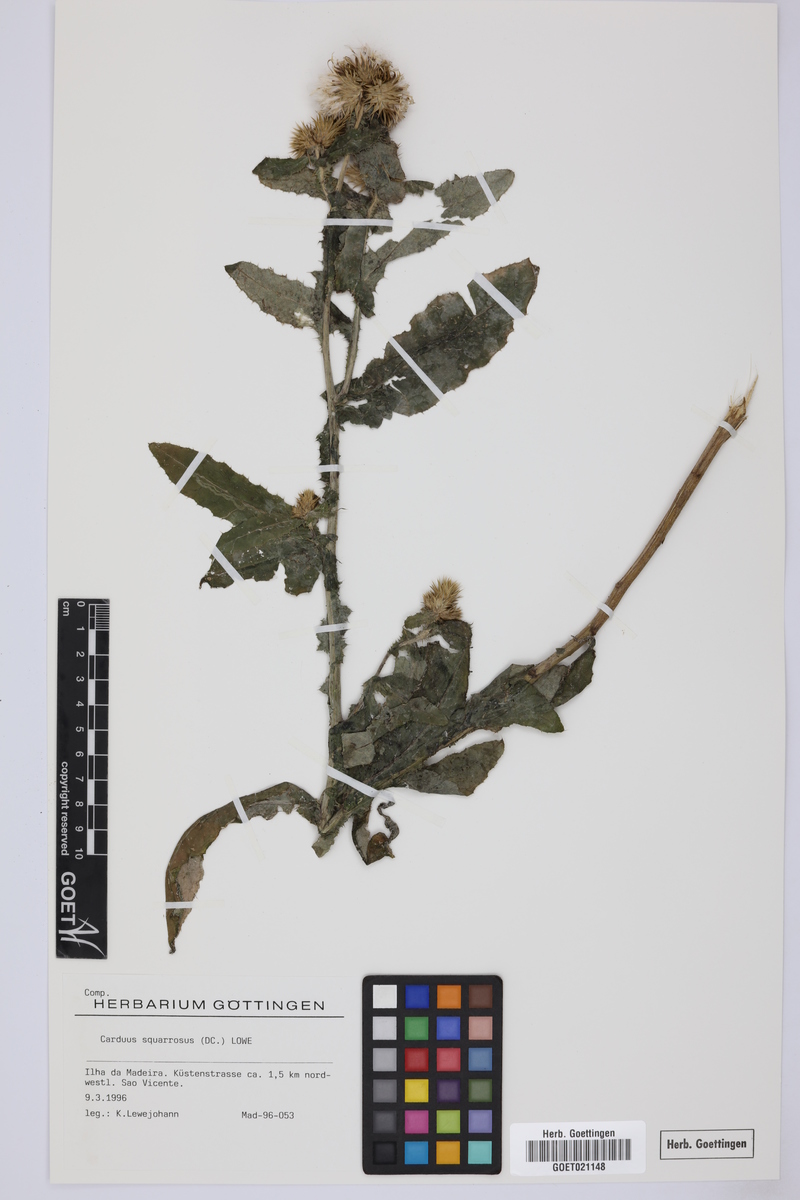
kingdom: Plantae
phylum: Tracheophyta
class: Magnoliopsida
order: Asterales
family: Asteraceae
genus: Carduus
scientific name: Carduus squarrosus
